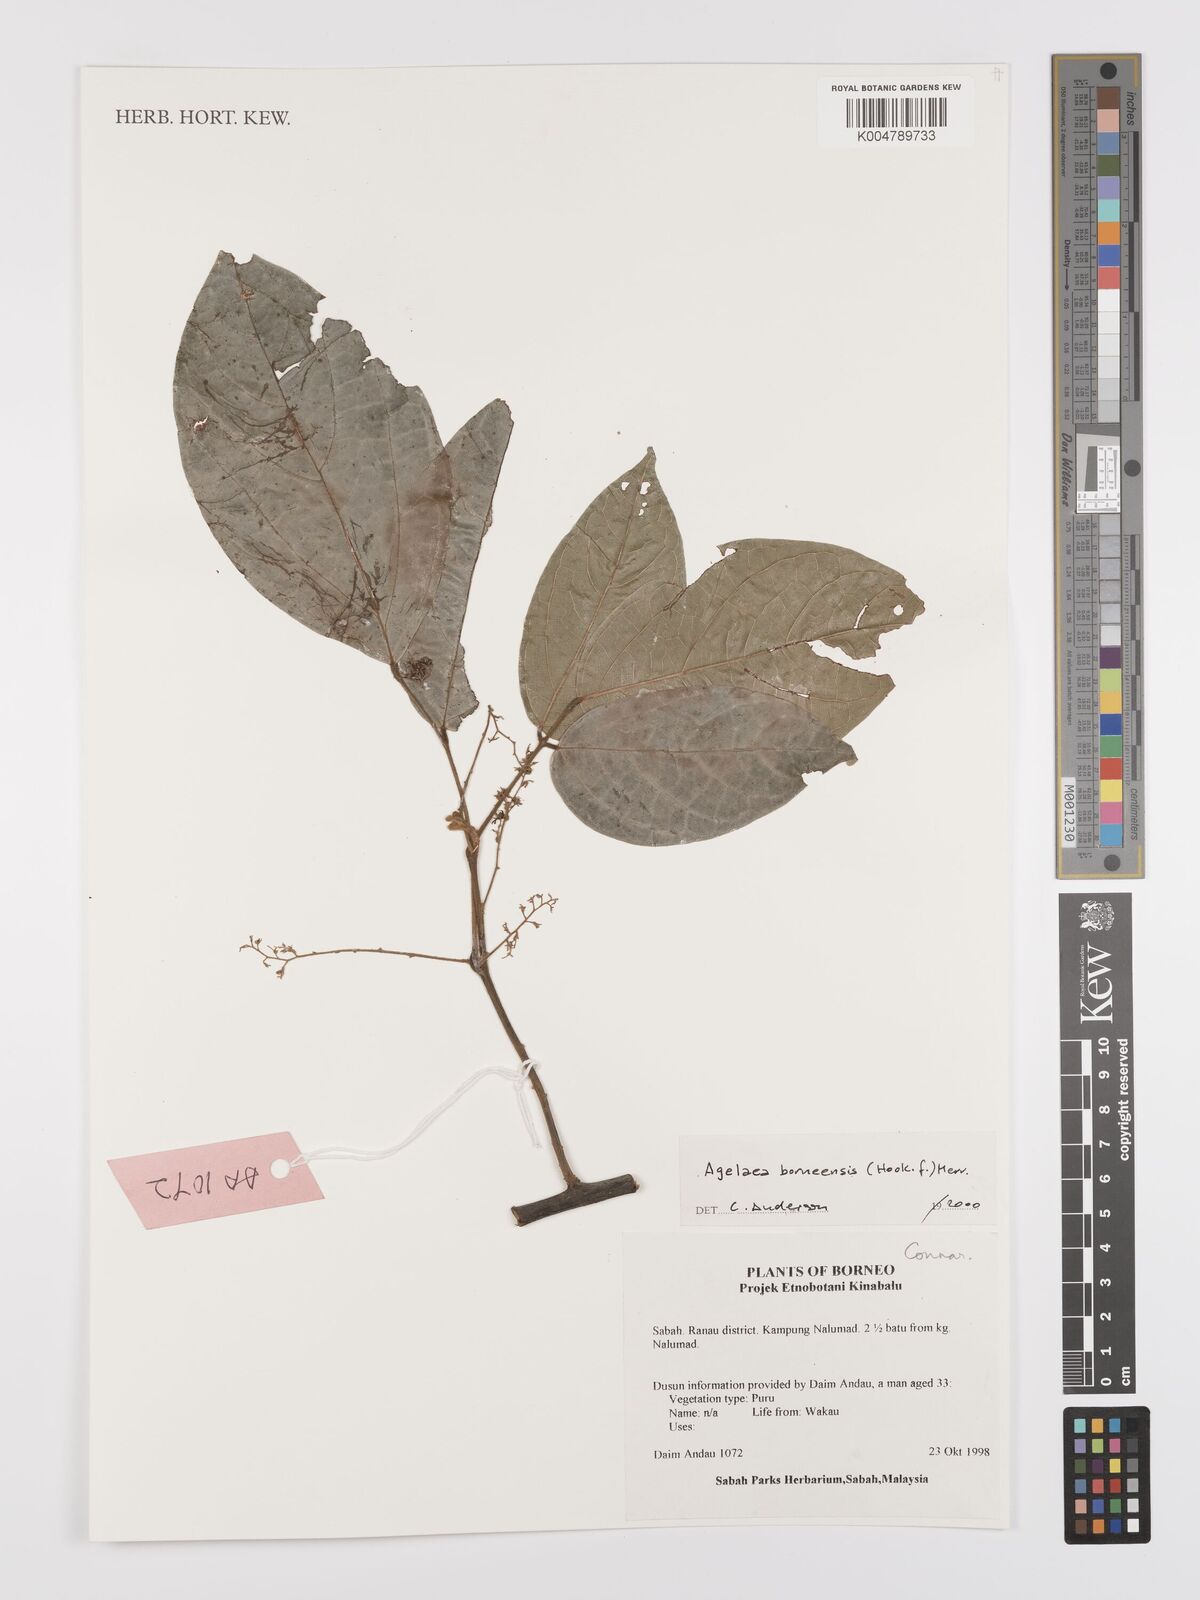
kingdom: Plantae
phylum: Tracheophyta
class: Magnoliopsida
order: Oxalidales
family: Connaraceae
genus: Agelaea
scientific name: Agelaea borneensis
